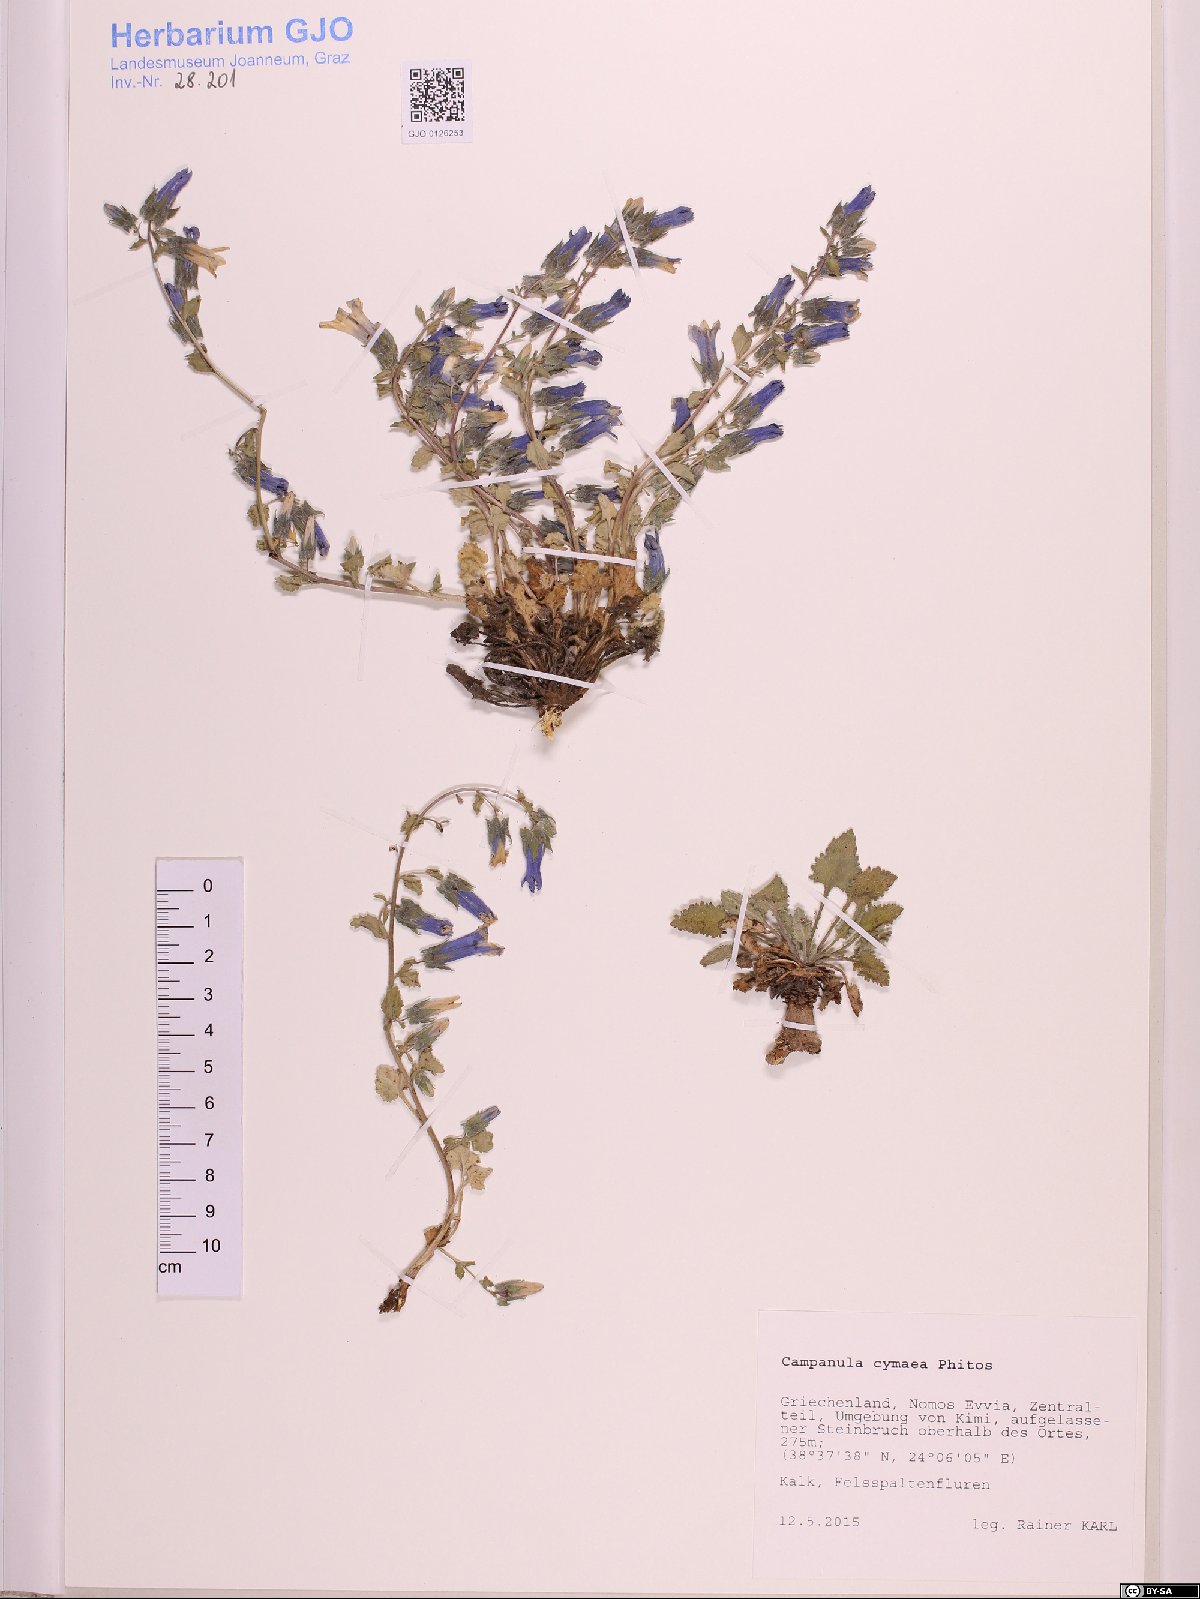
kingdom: Plantae
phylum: Tracheophyta
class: Magnoliopsida
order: Asterales
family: Campanulaceae
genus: Campanula
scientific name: Campanula cymaea
